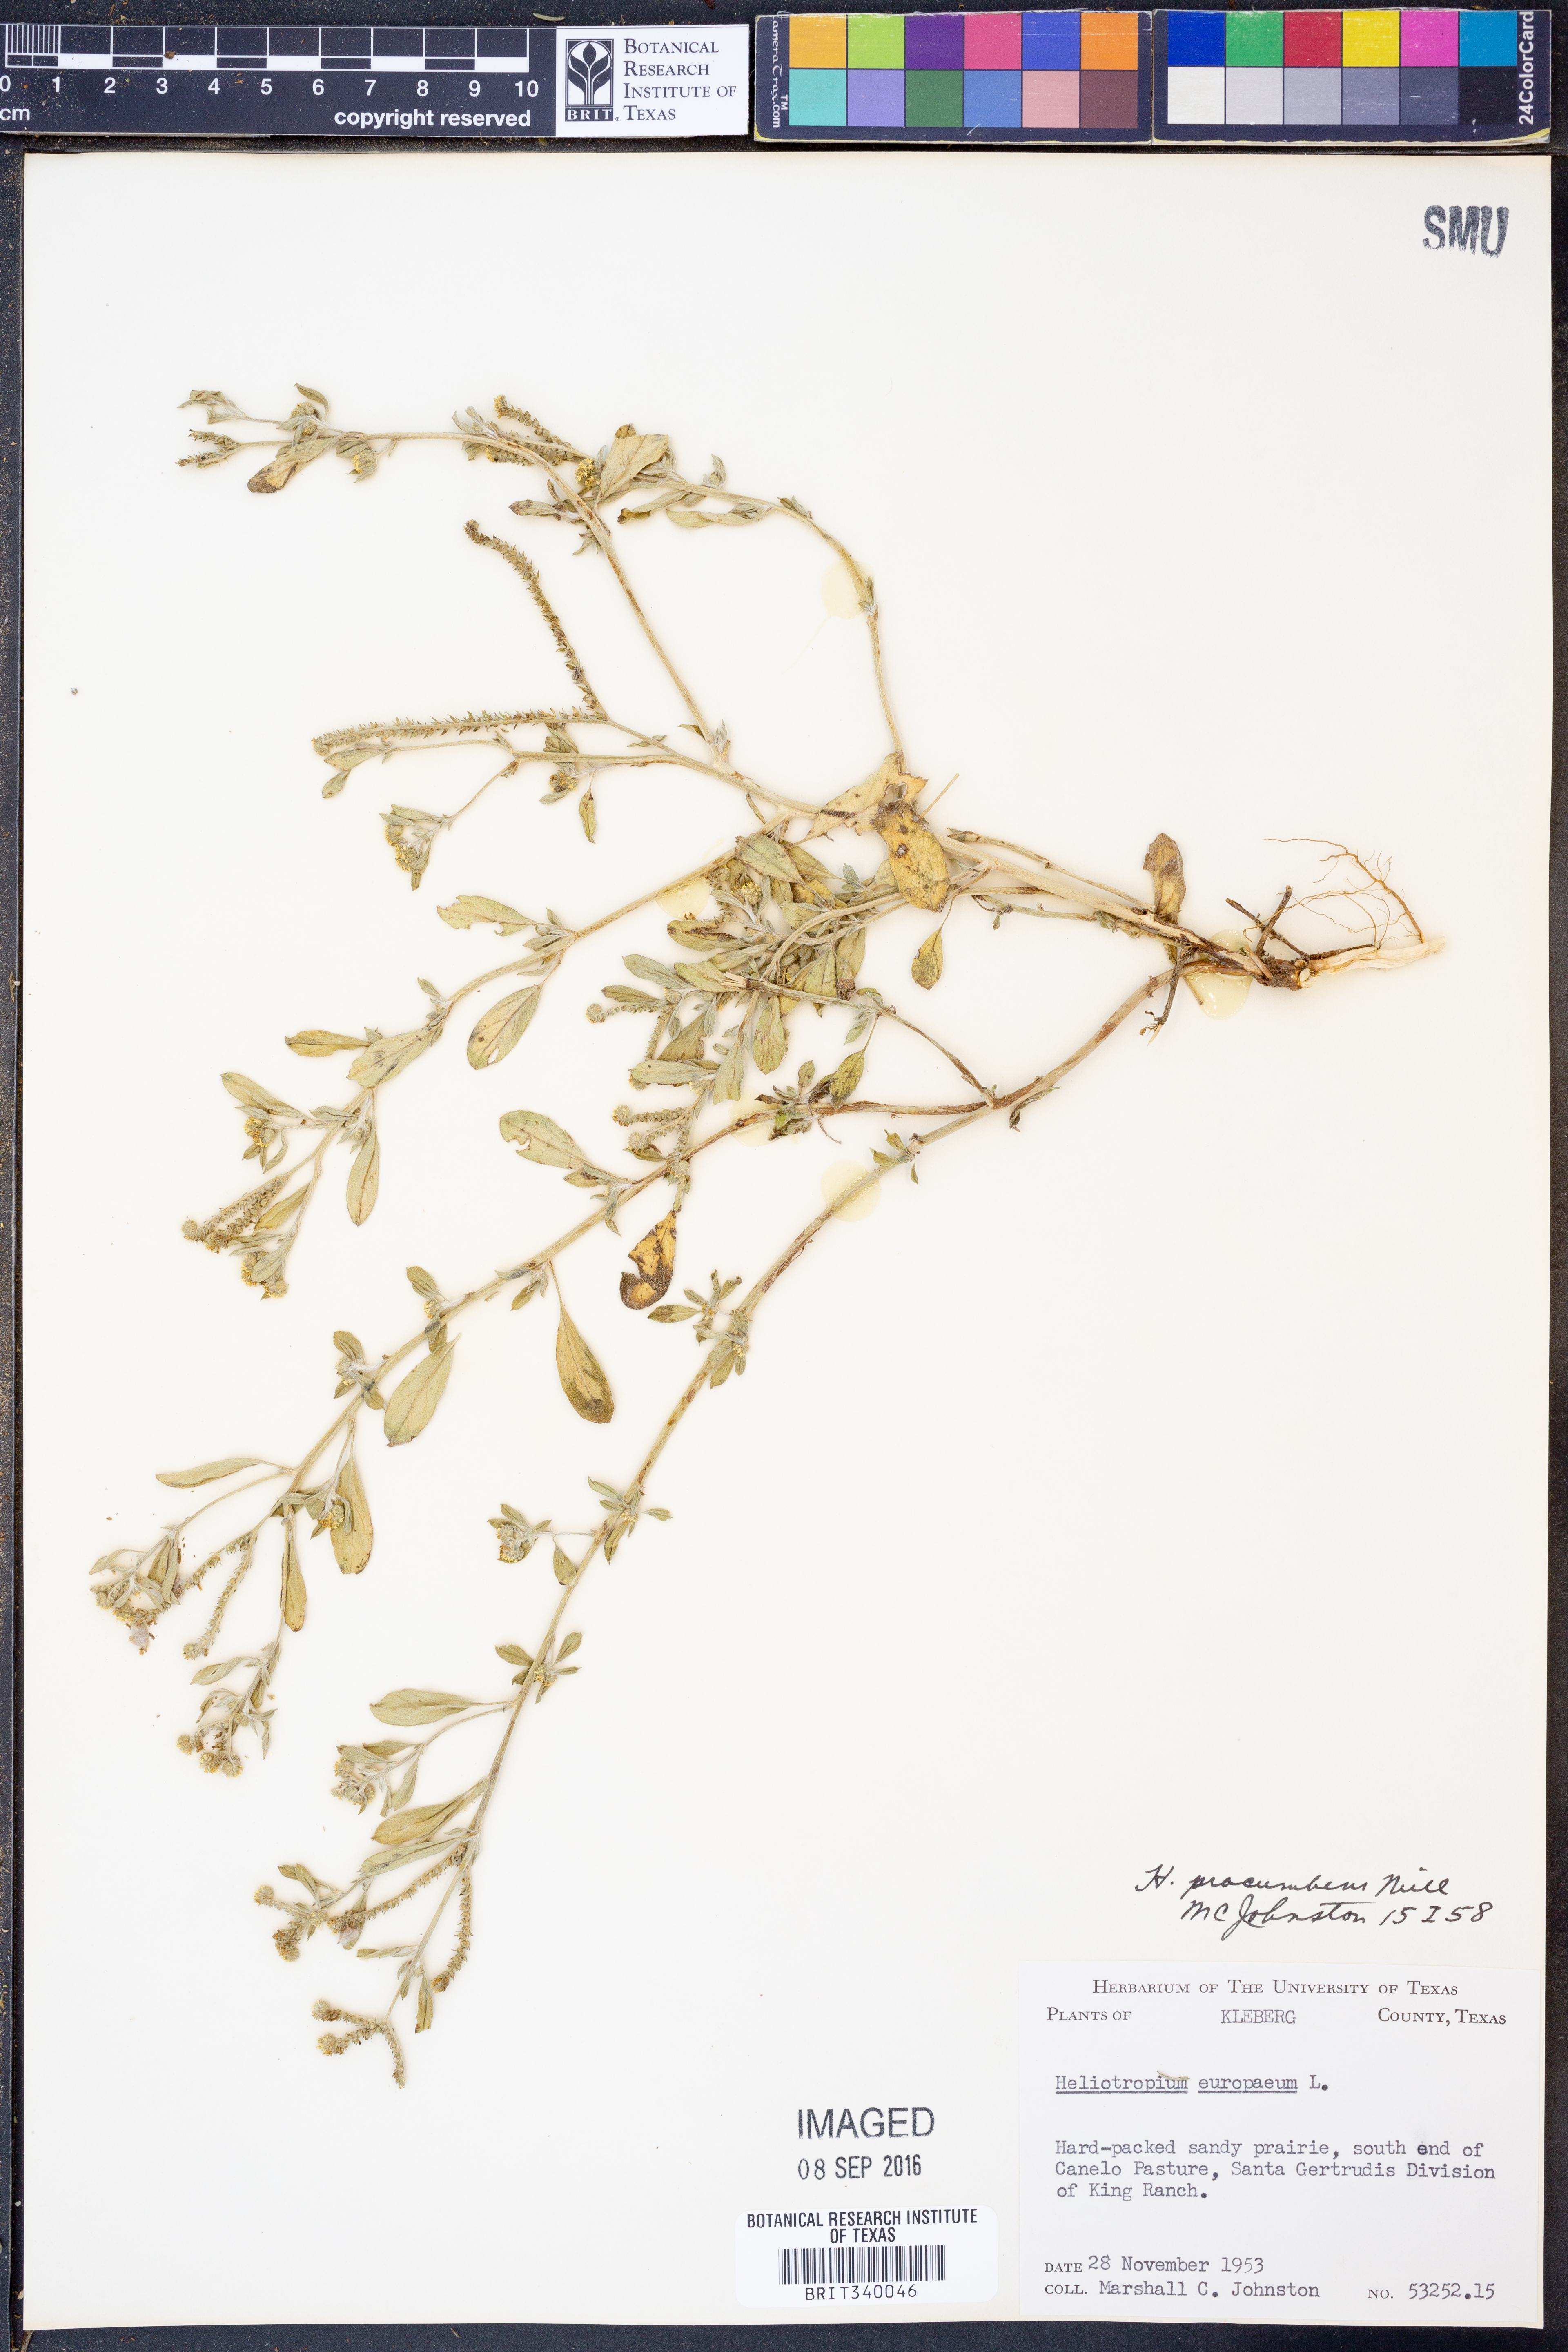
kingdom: Plantae
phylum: Tracheophyta
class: Magnoliopsida
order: Boraginales
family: Heliotropiaceae
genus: Euploca
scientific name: Euploca procumbens
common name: Fourspike heliotrope
